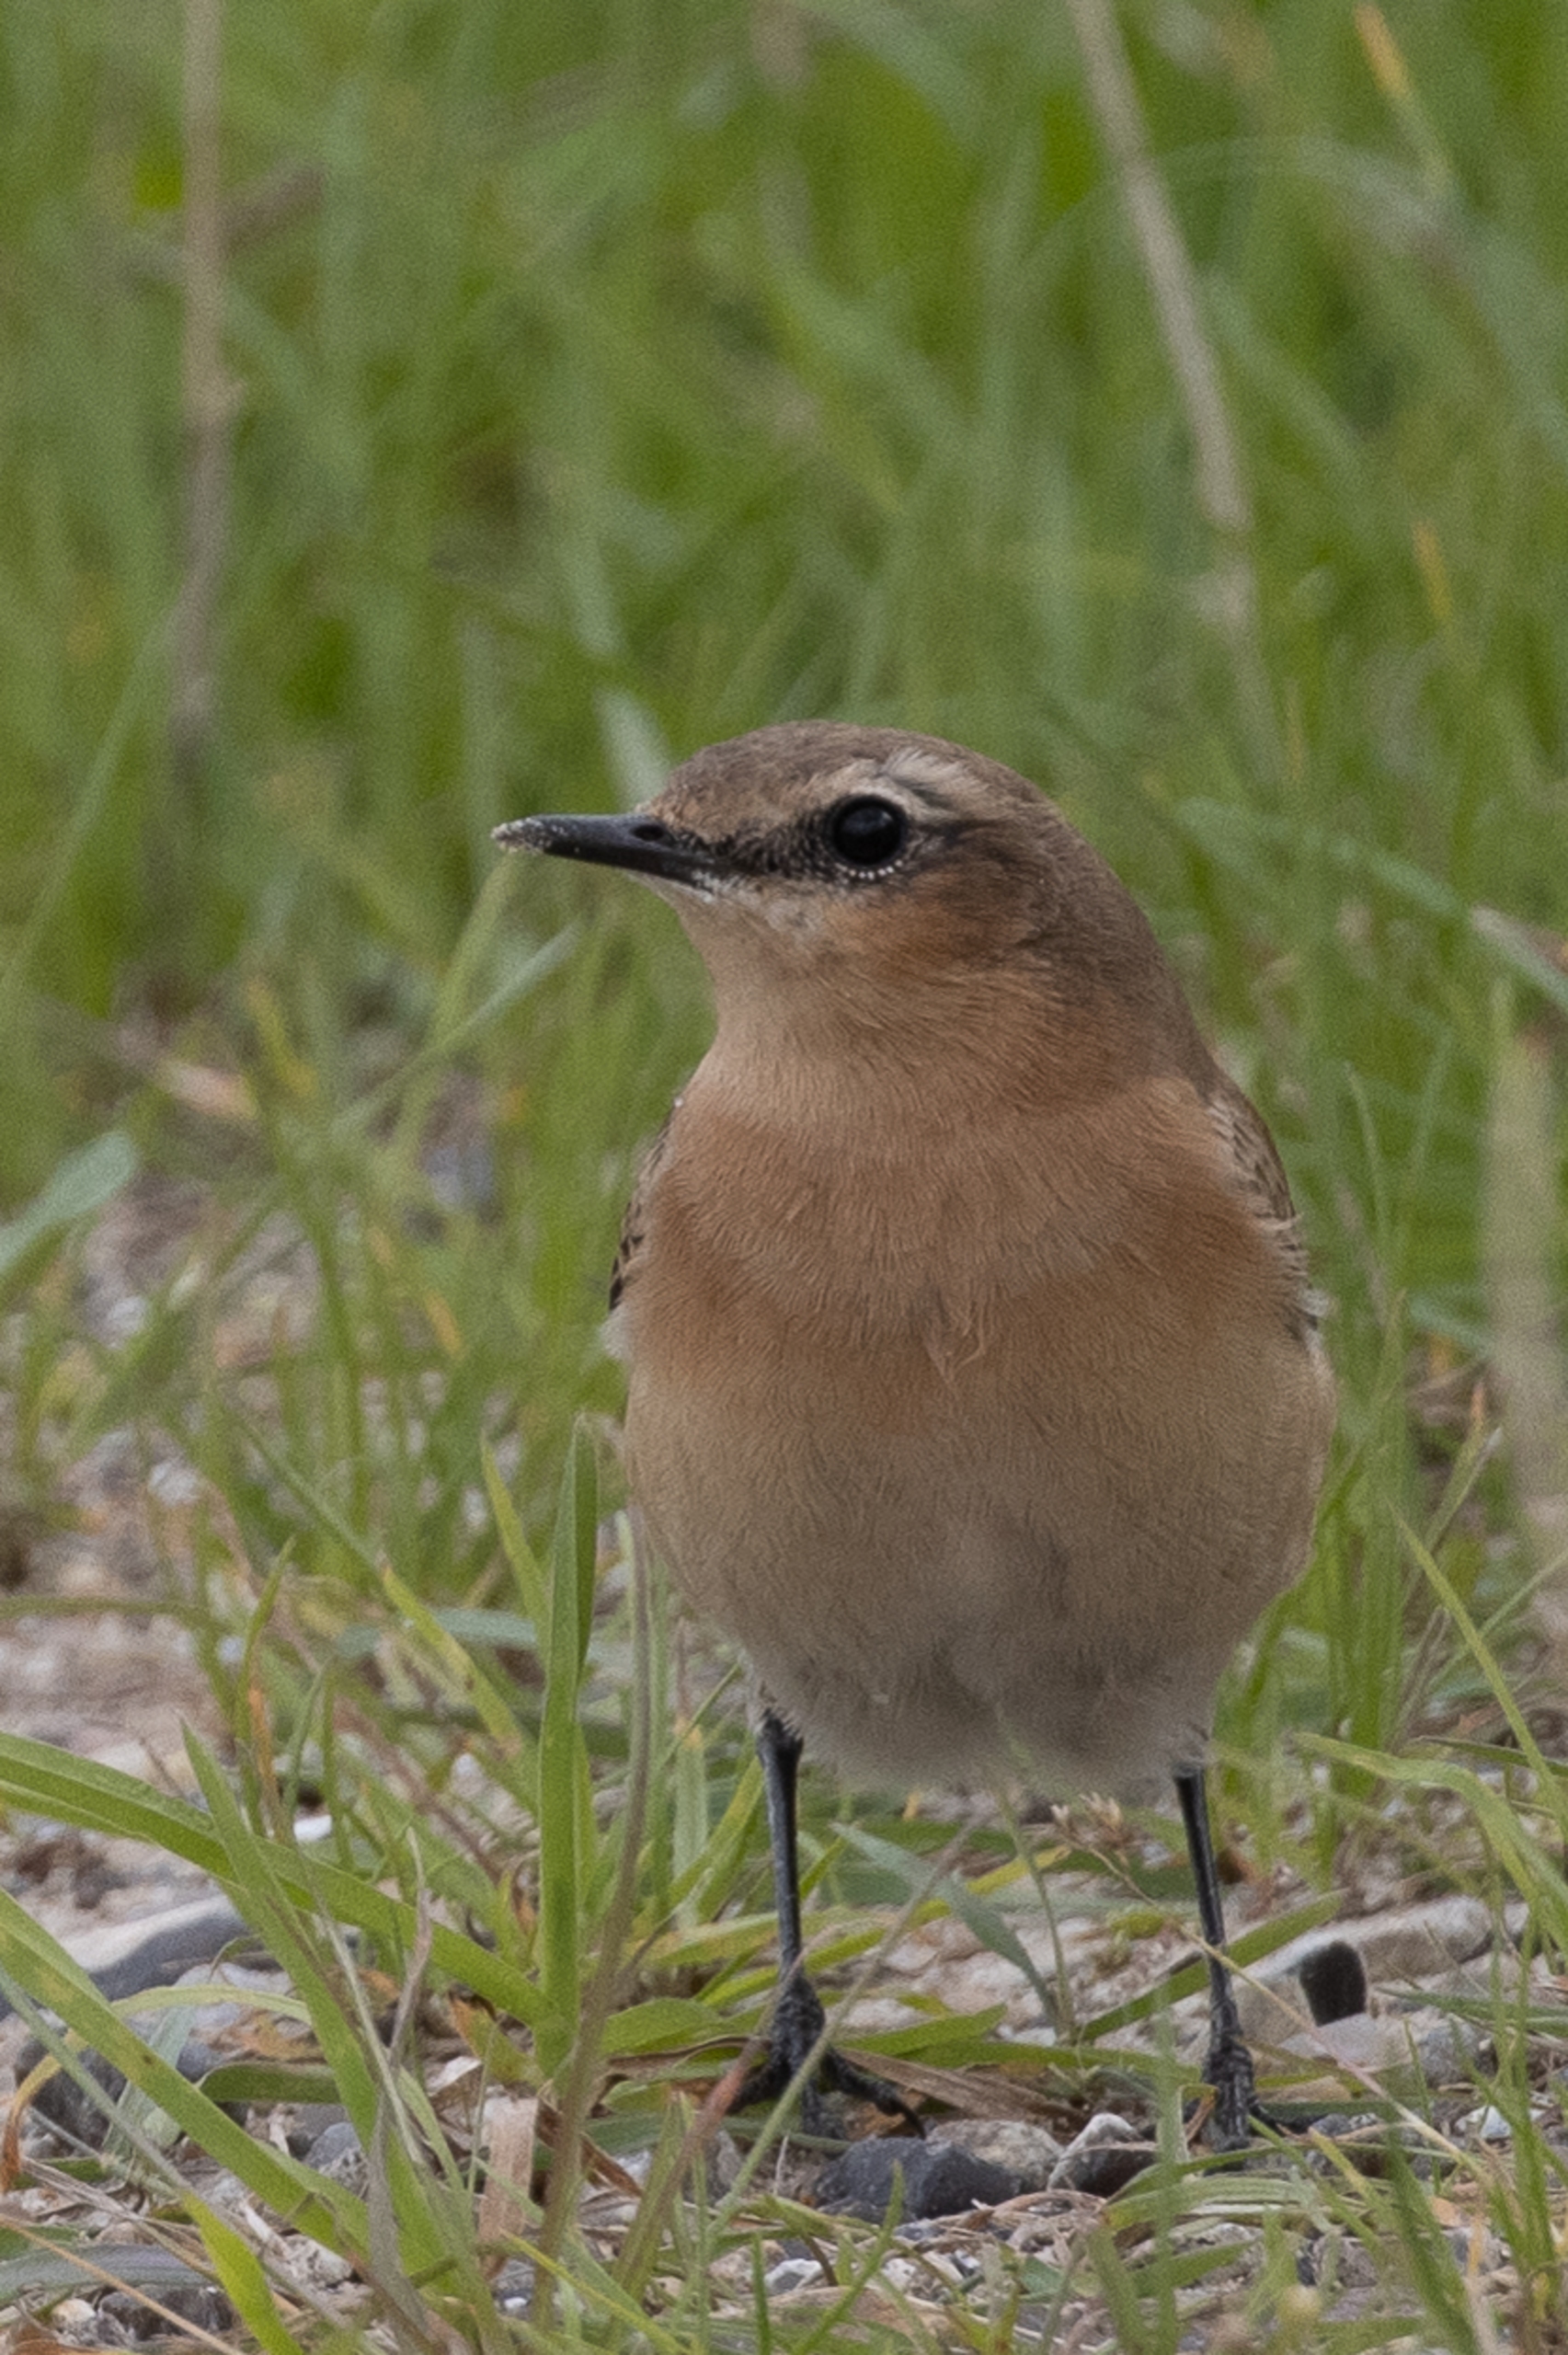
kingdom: Animalia
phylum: Chordata
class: Aves
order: Passeriformes
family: Muscicapidae
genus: Oenanthe
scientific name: Oenanthe oenanthe
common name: Stenpikker
